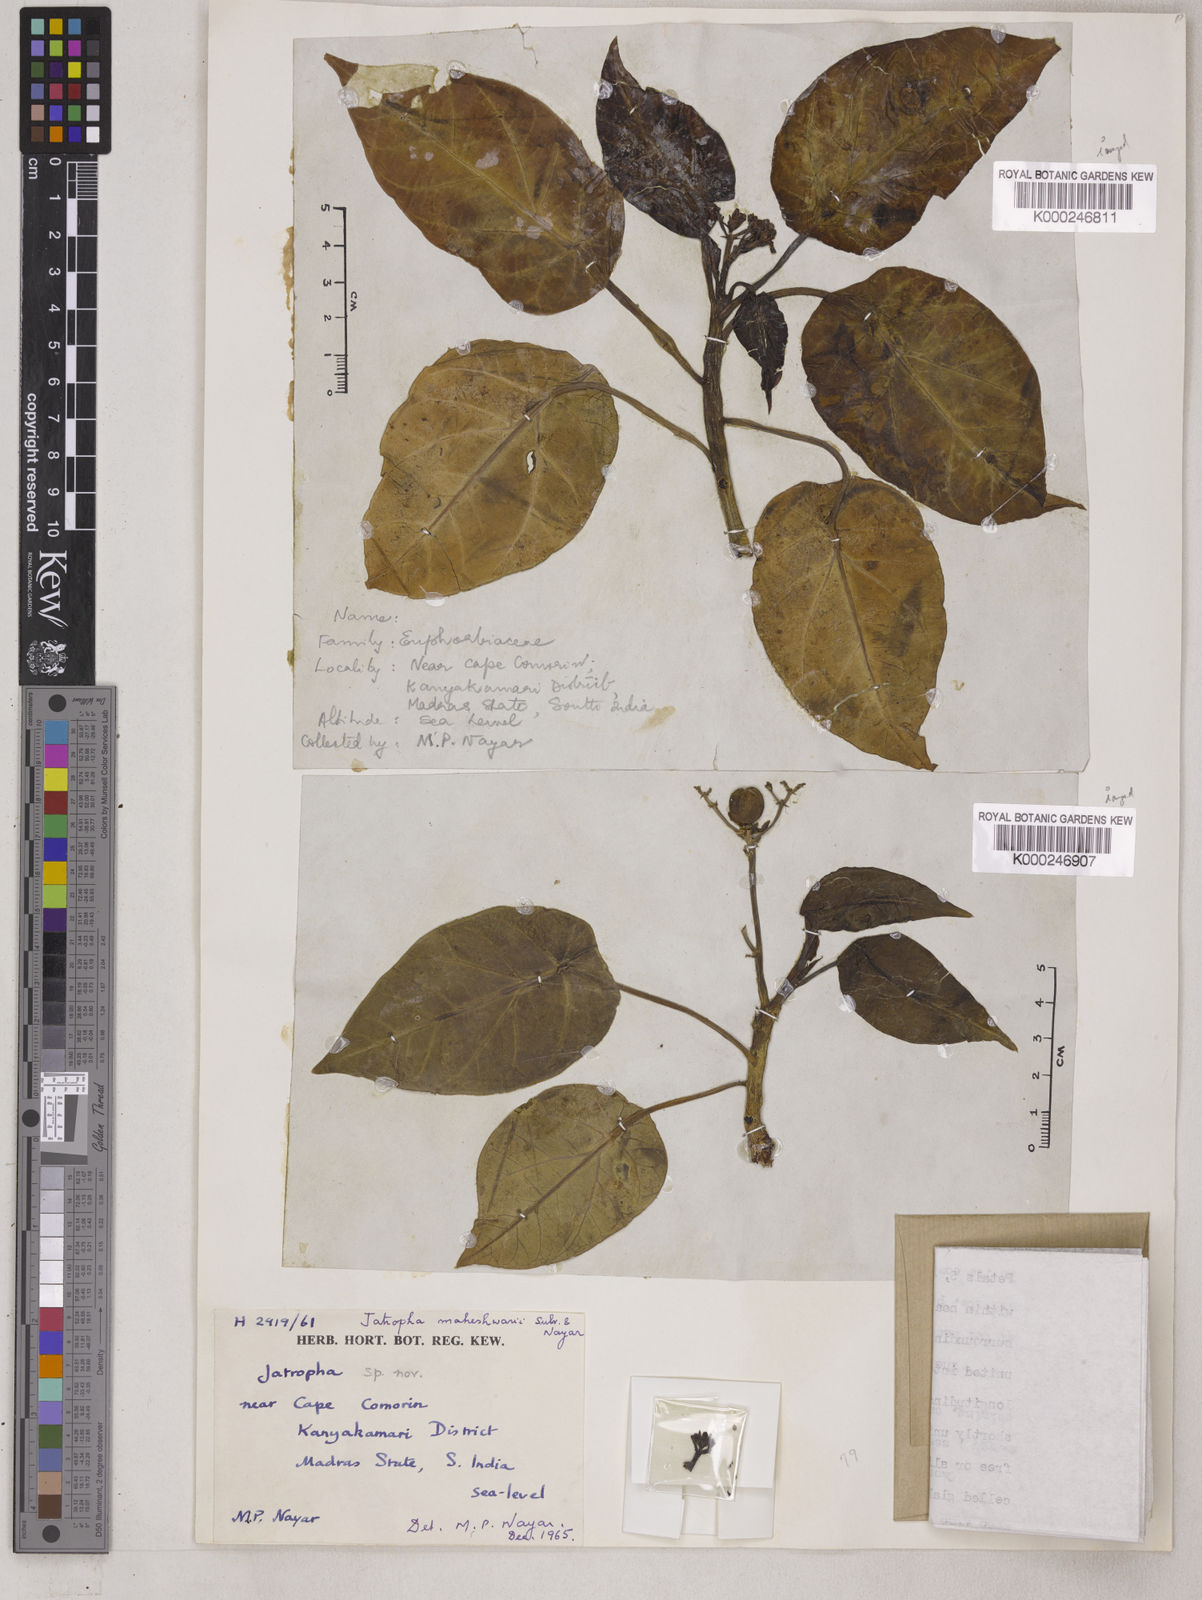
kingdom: Plantae
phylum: Tracheophyta
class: Magnoliopsida
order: Malpighiales
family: Euphorbiaceae
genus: Jatropha
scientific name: Jatropha maheshwarii
